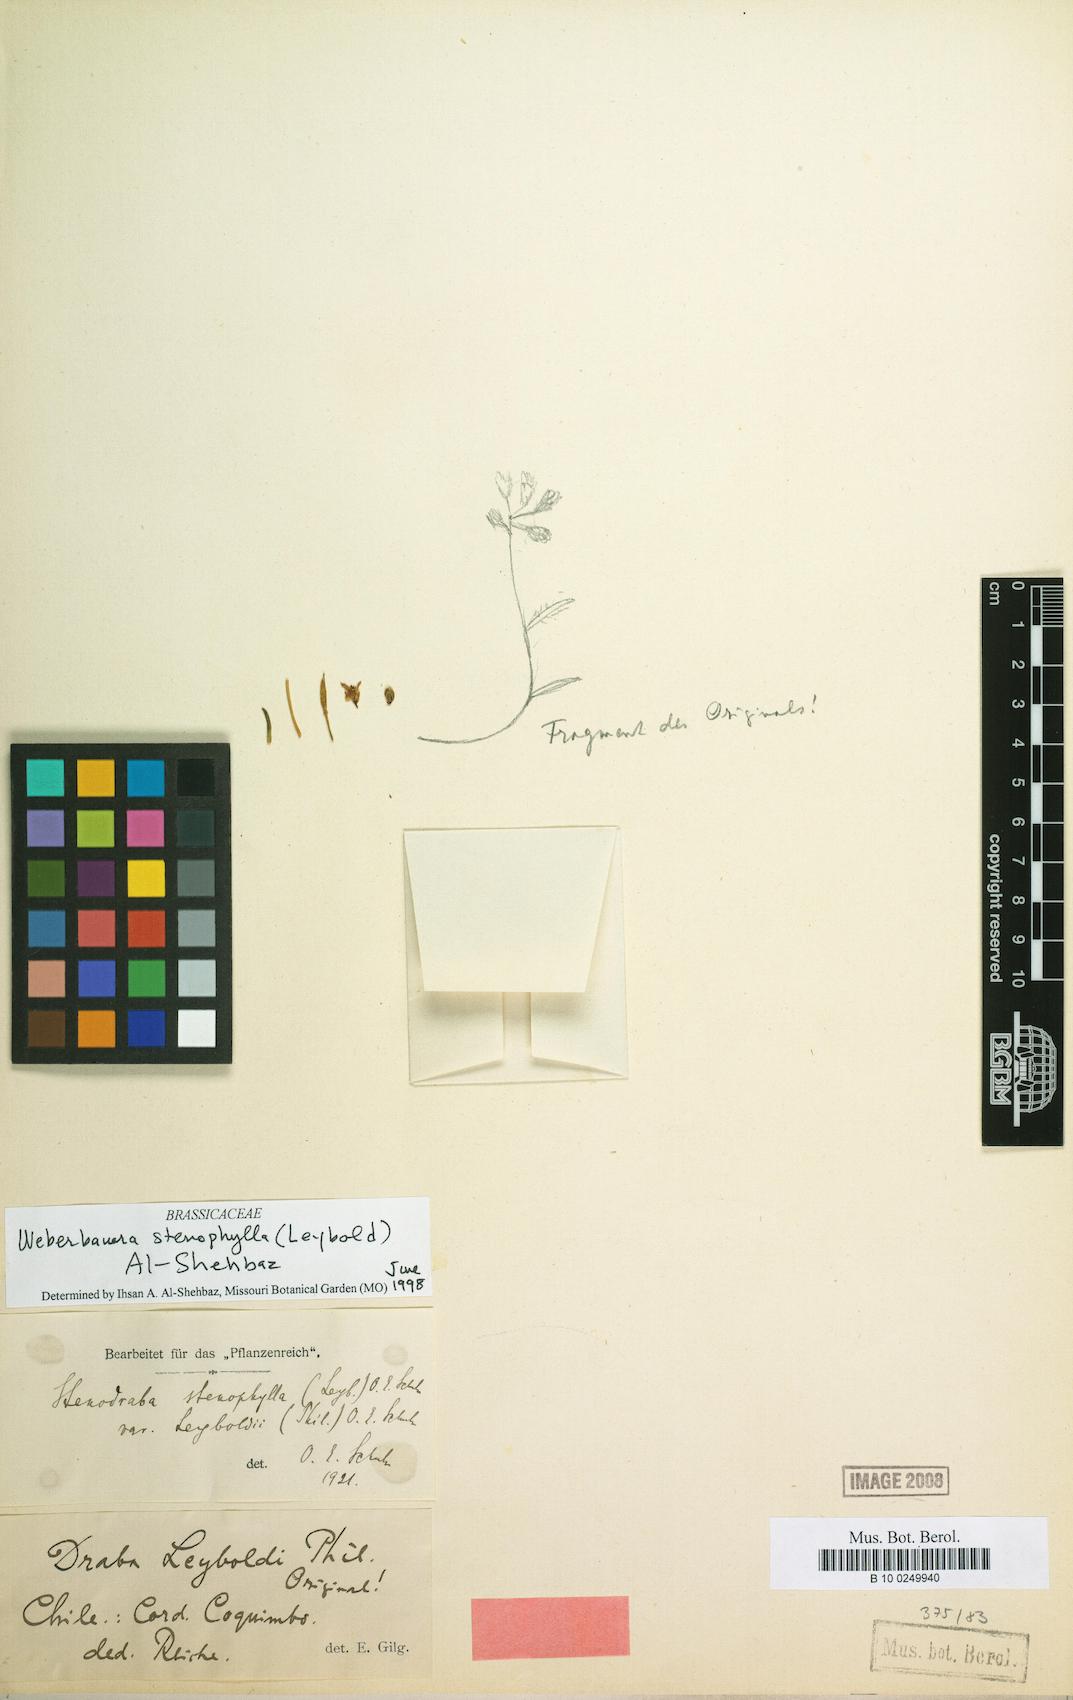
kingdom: Plantae
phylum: Tracheophyta
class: Magnoliopsida
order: Brassicales
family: Brassicaceae
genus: Stenodraba
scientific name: Stenodraba stenophylla
